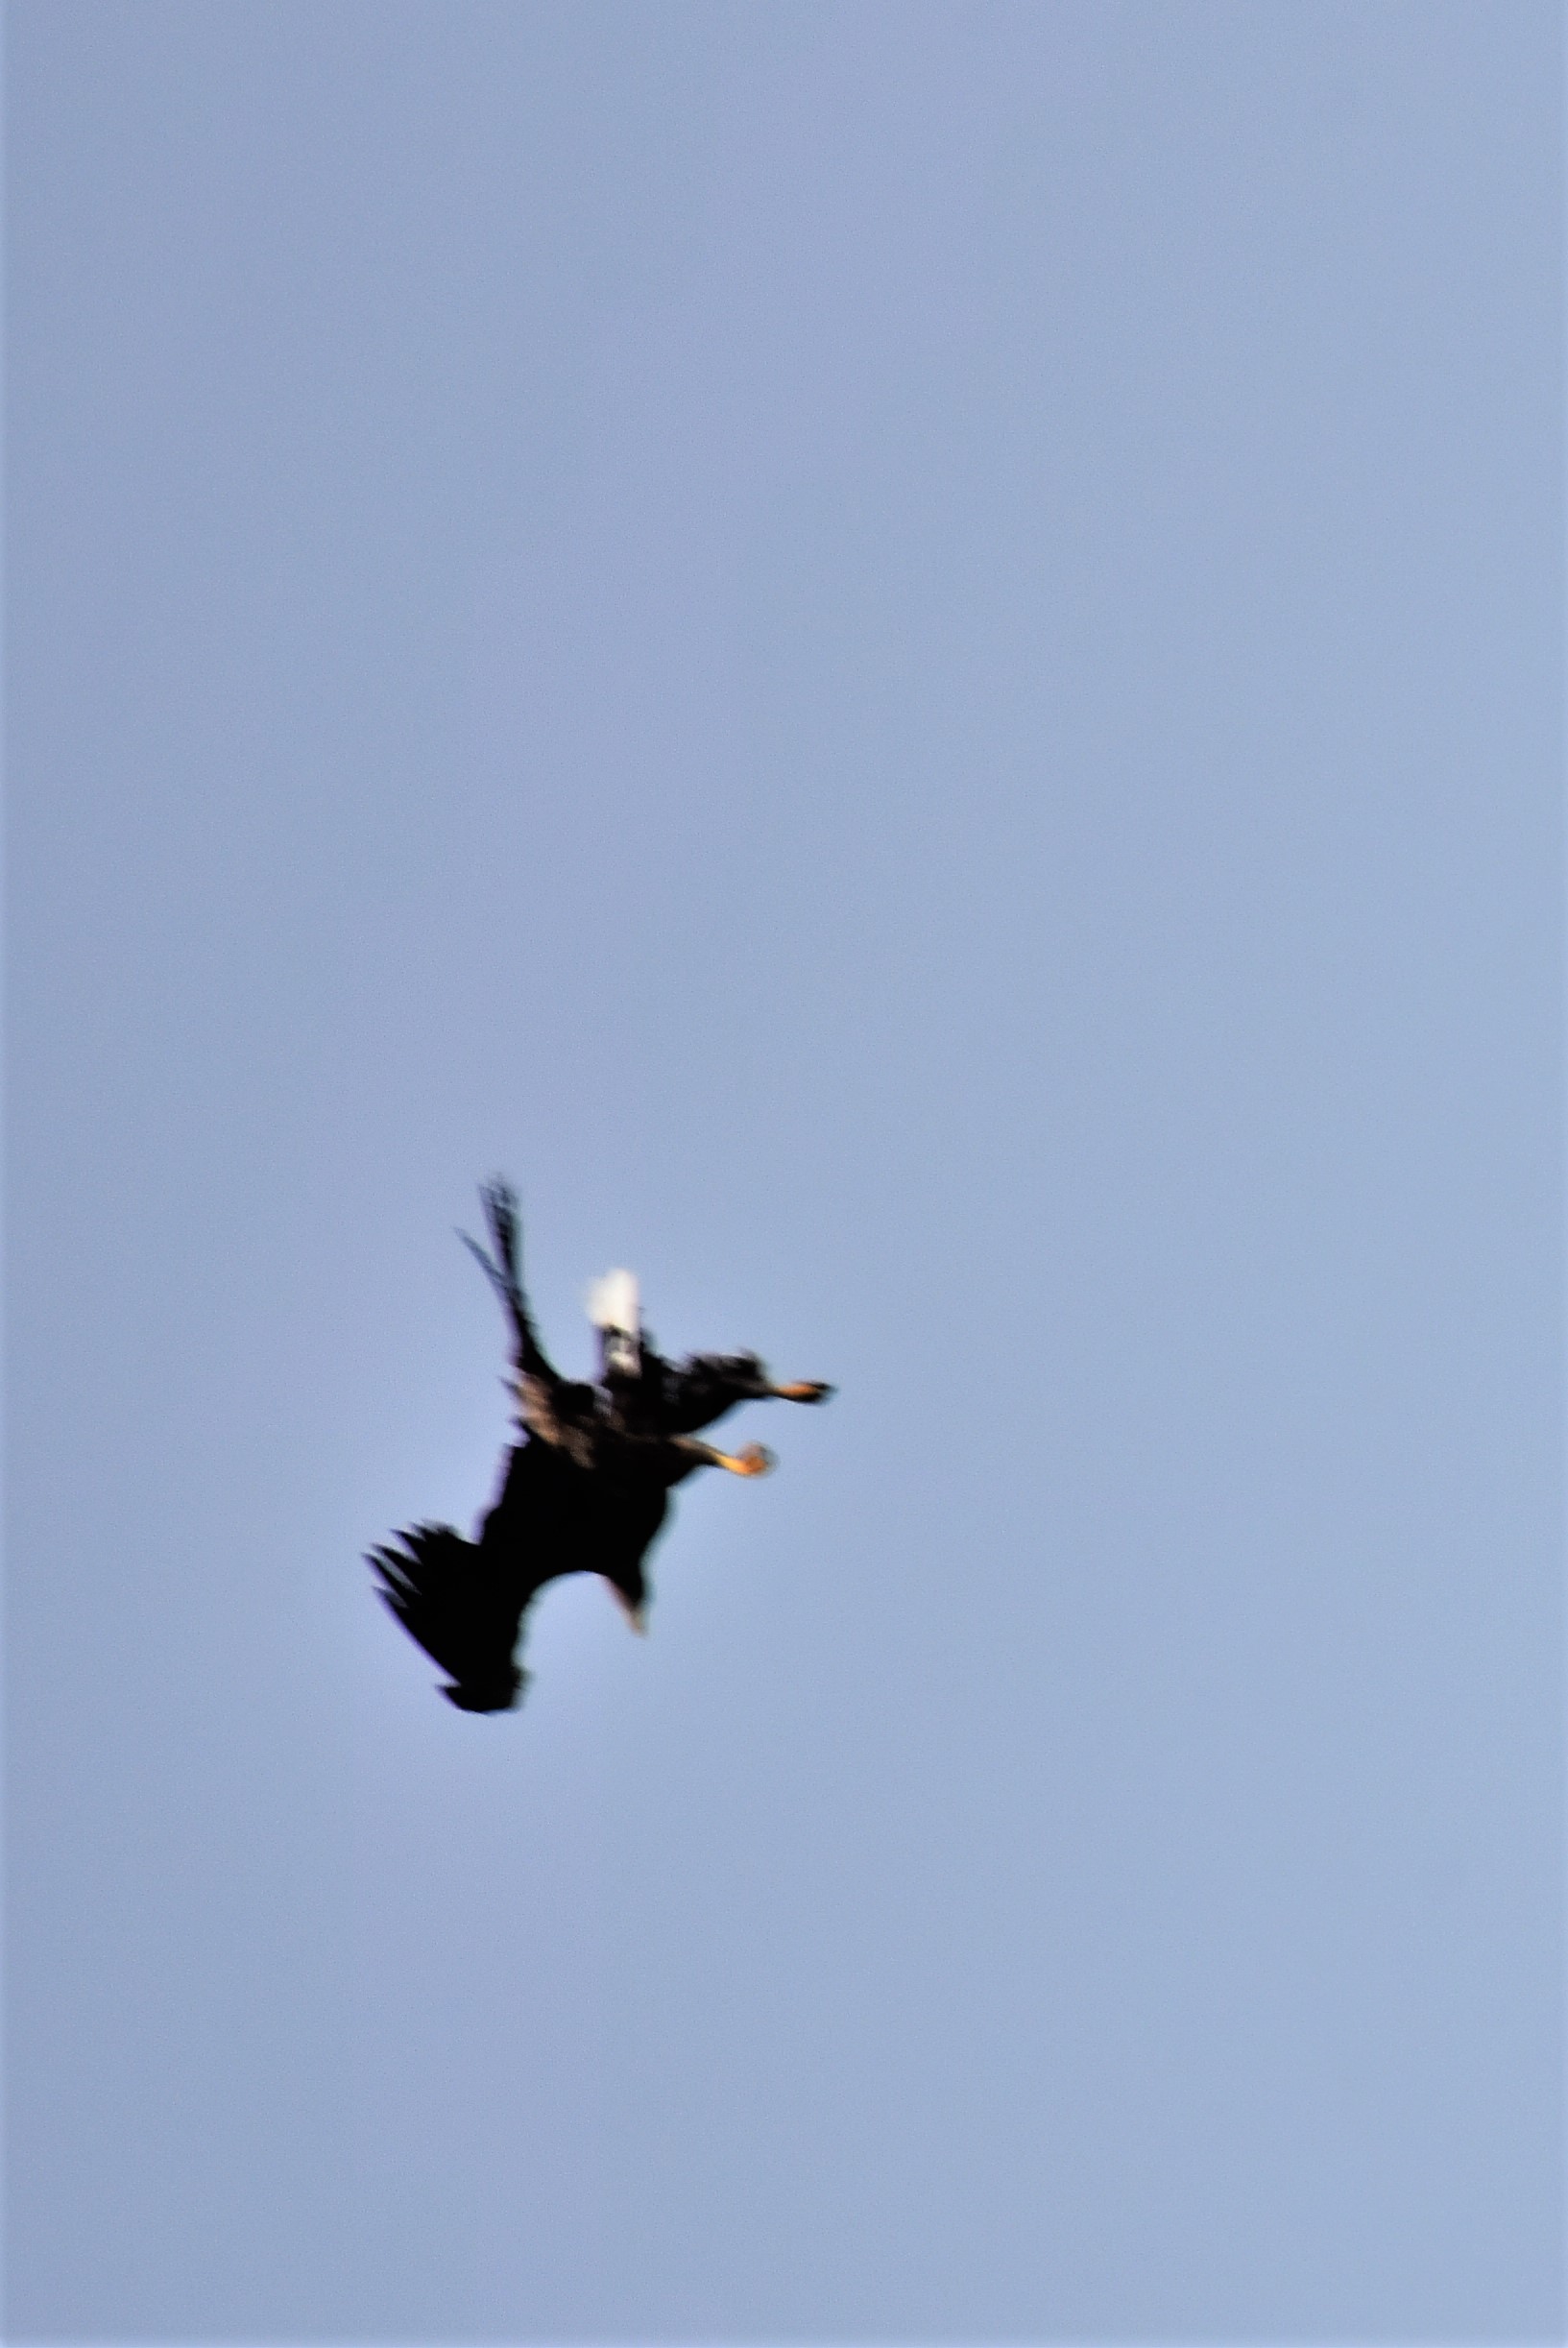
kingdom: Animalia
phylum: Chordata
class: Aves
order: Accipitriformes
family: Accipitridae
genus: Haliaeetus
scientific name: Haliaeetus albicilla
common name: Havørn
